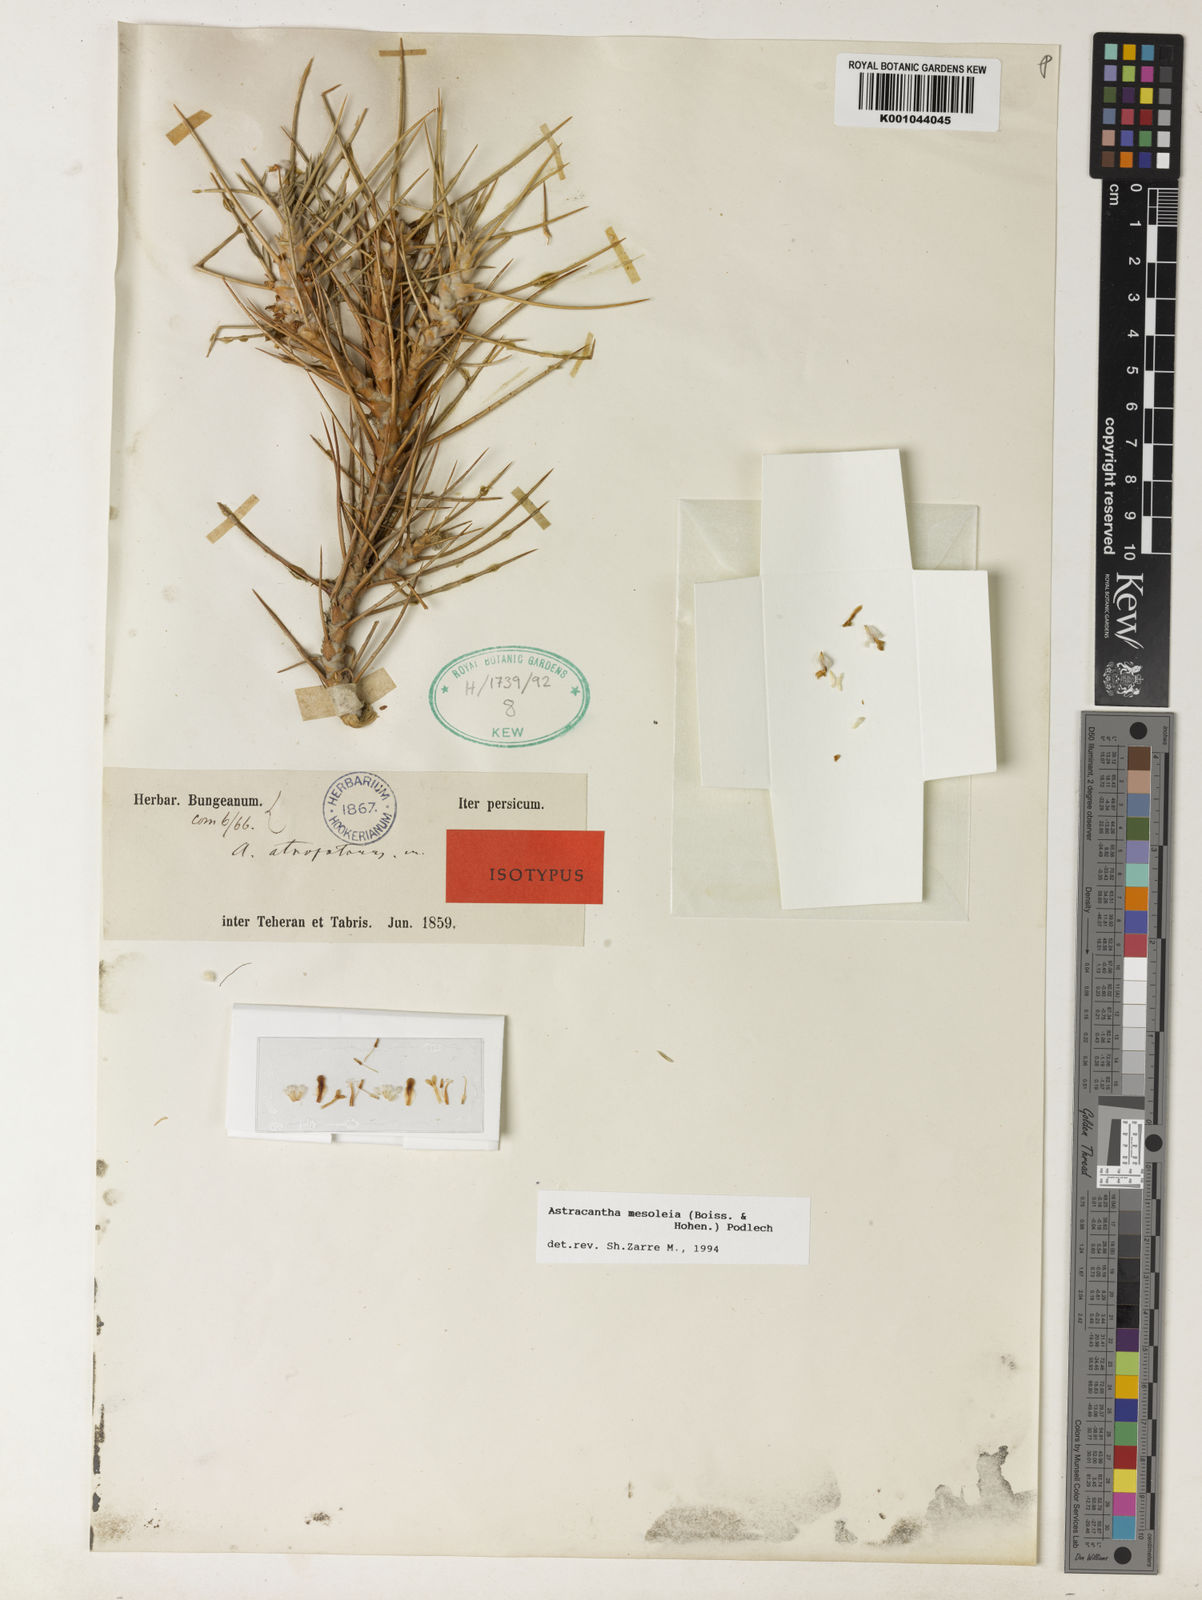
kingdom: Plantae
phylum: Tracheophyta
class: Magnoliopsida
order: Fabales
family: Fabaceae
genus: Astragalus
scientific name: Astragalus
